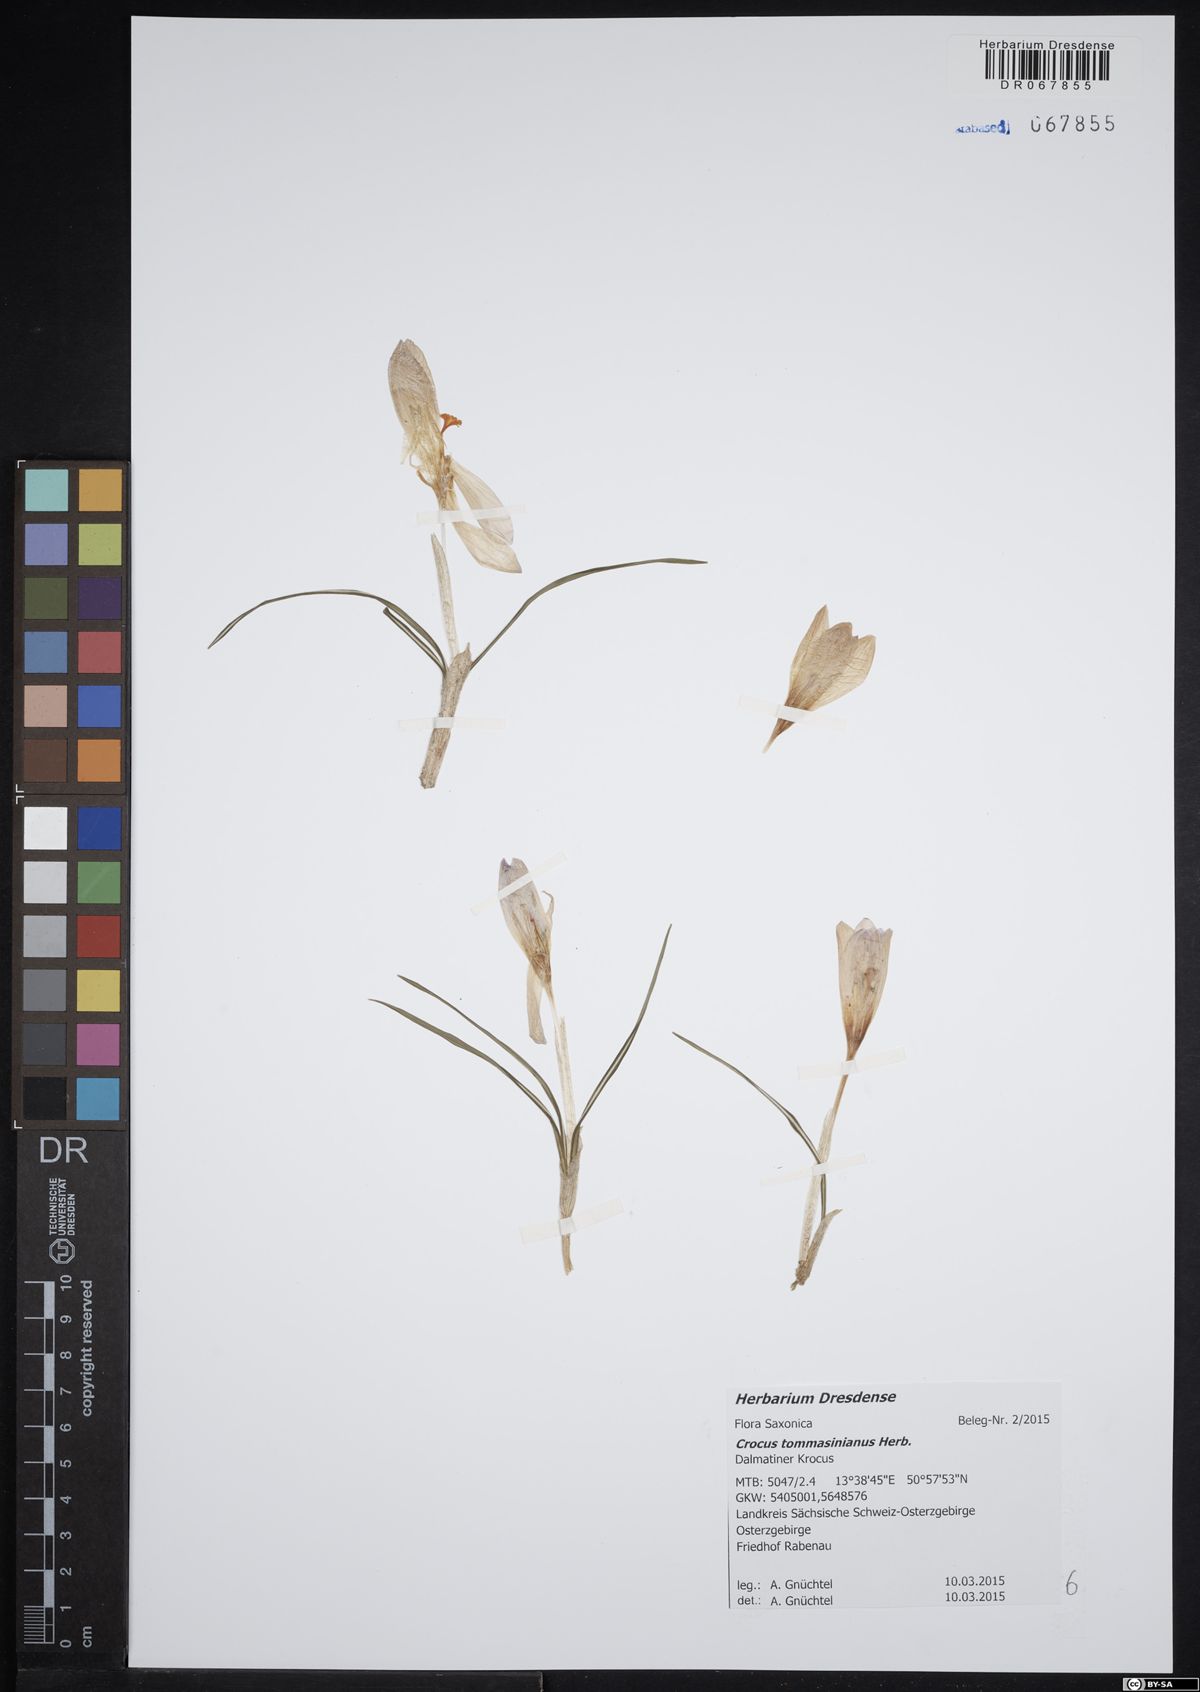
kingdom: Plantae
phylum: Tracheophyta
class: Liliopsida
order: Asparagales
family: Iridaceae
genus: Crocus
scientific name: Crocus tommasinianus
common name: Early crocus
